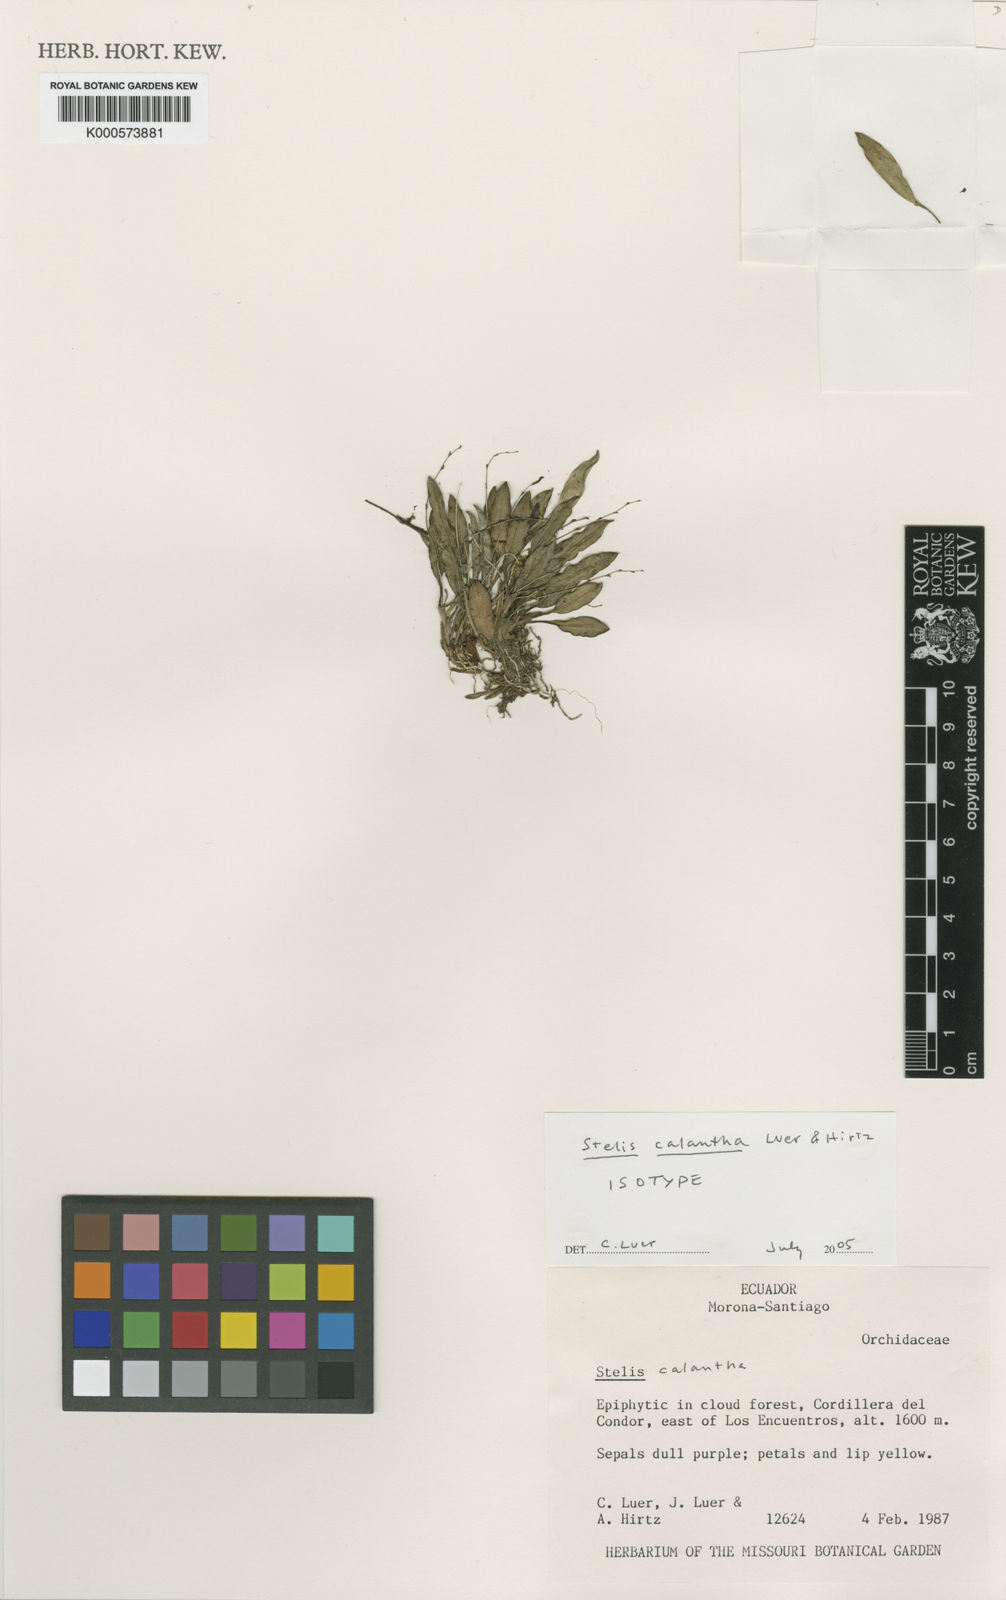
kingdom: Plantae
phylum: Tracheophyta
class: Liliopsida
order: Asparagales
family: Orchidaceae
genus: Stelis
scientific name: Stelis calantha
